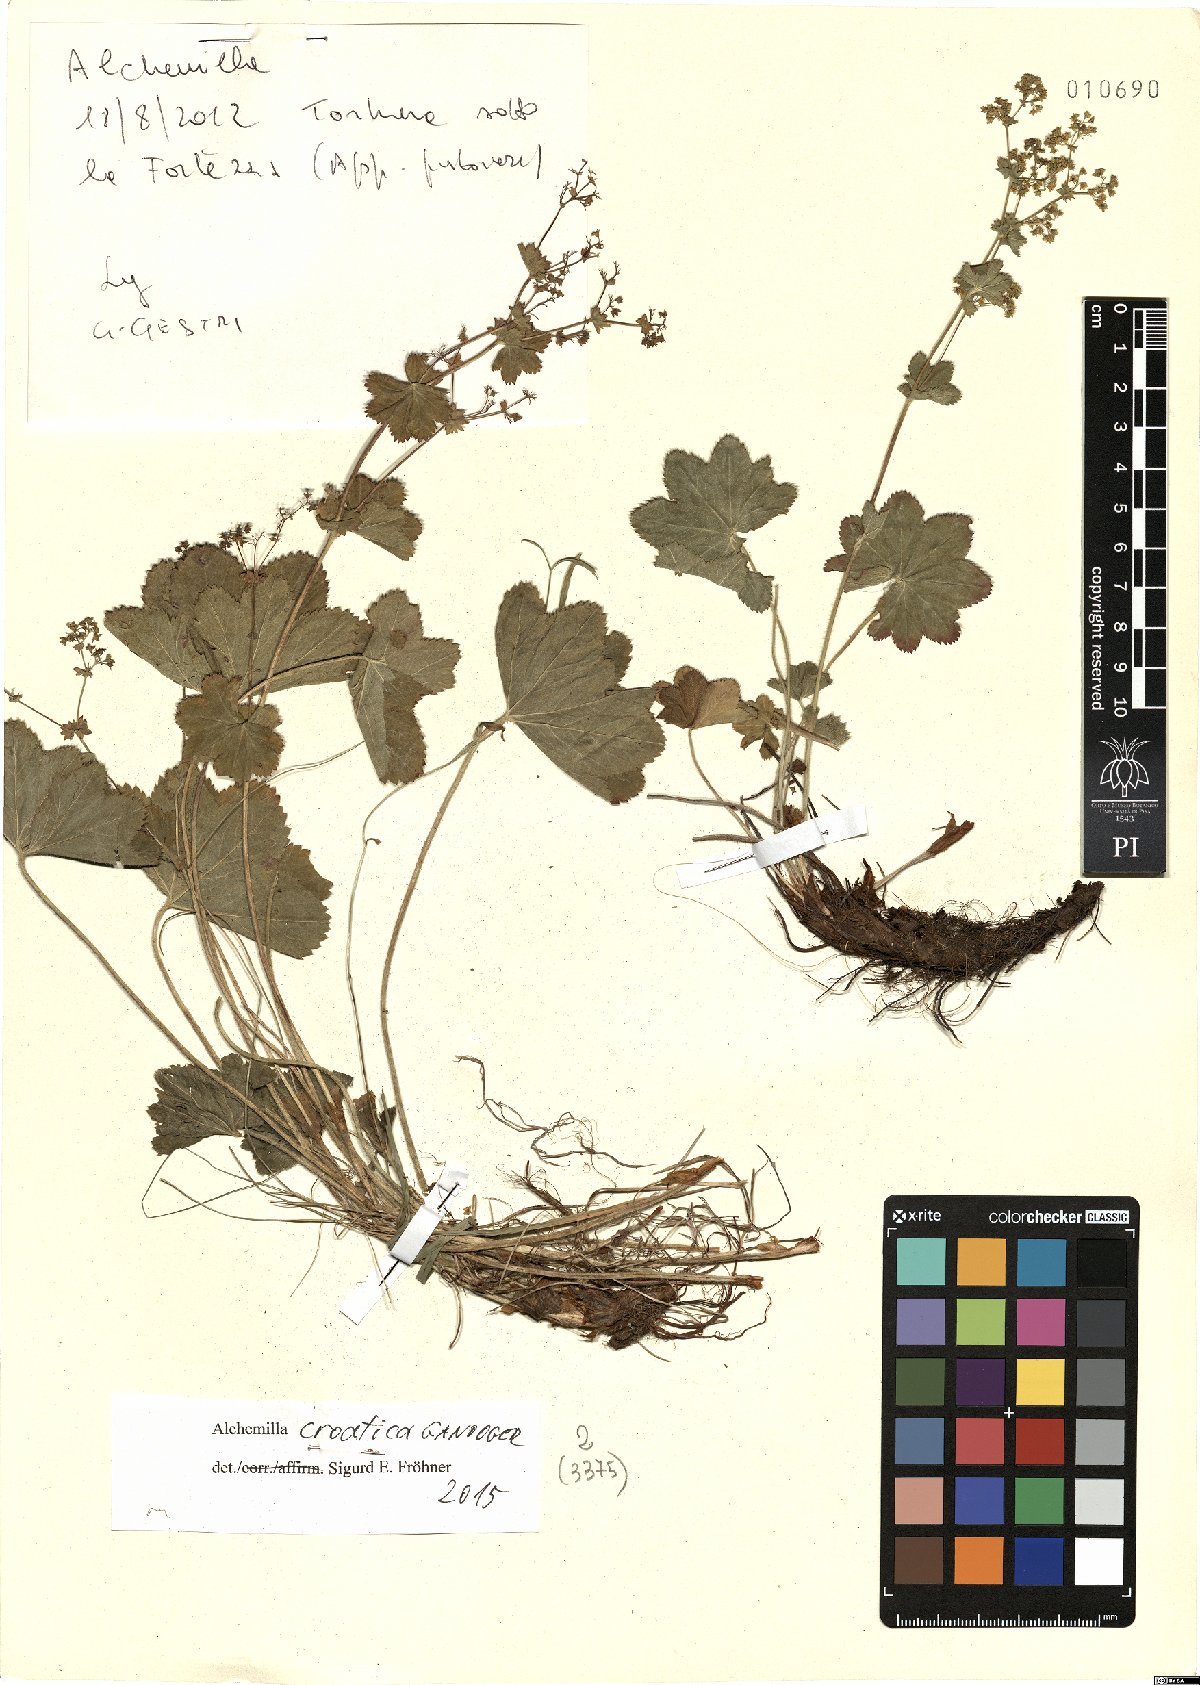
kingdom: Plantae
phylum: Tracheophyta
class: Magnoliopsida
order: Rosales
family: Rosaceae
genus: Alchemilla
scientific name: Alchemilla croatica
